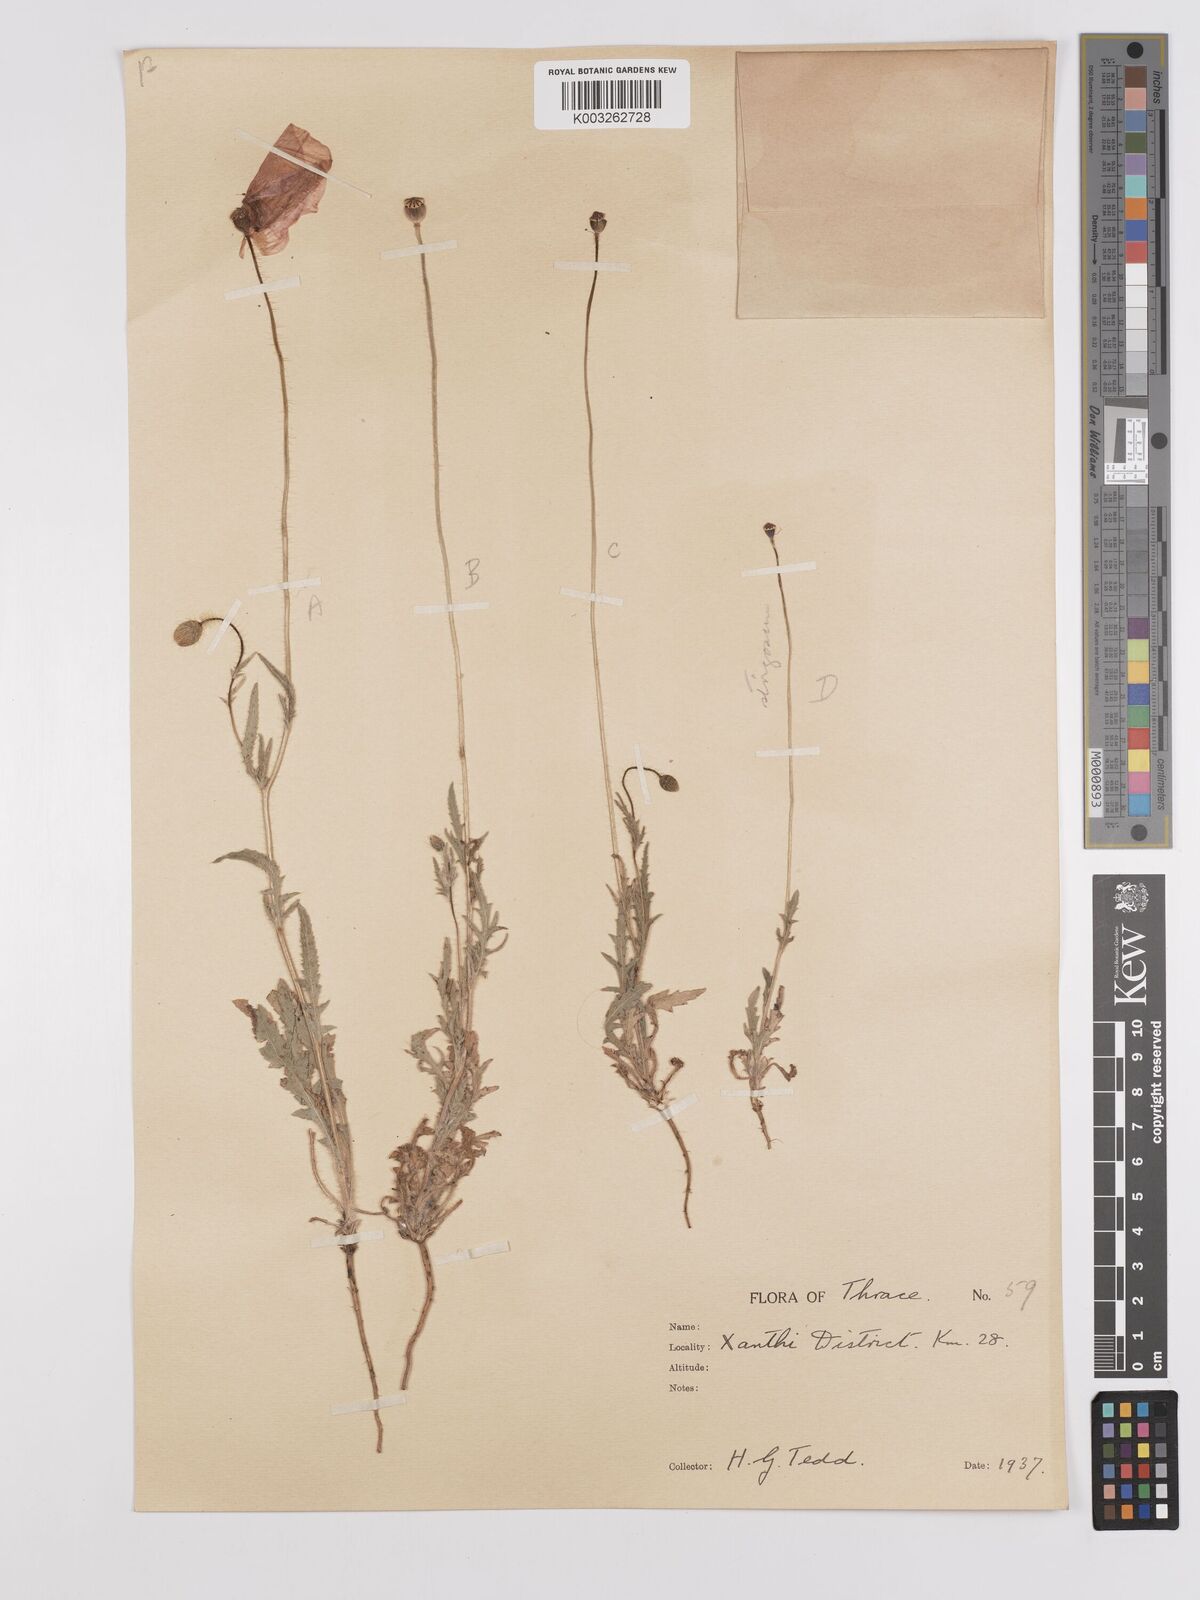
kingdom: Plantae
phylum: Tracheophyta
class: Magnoliopsida
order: Ranunculales
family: Papaveraceae
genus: Papaver
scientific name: Papaver
